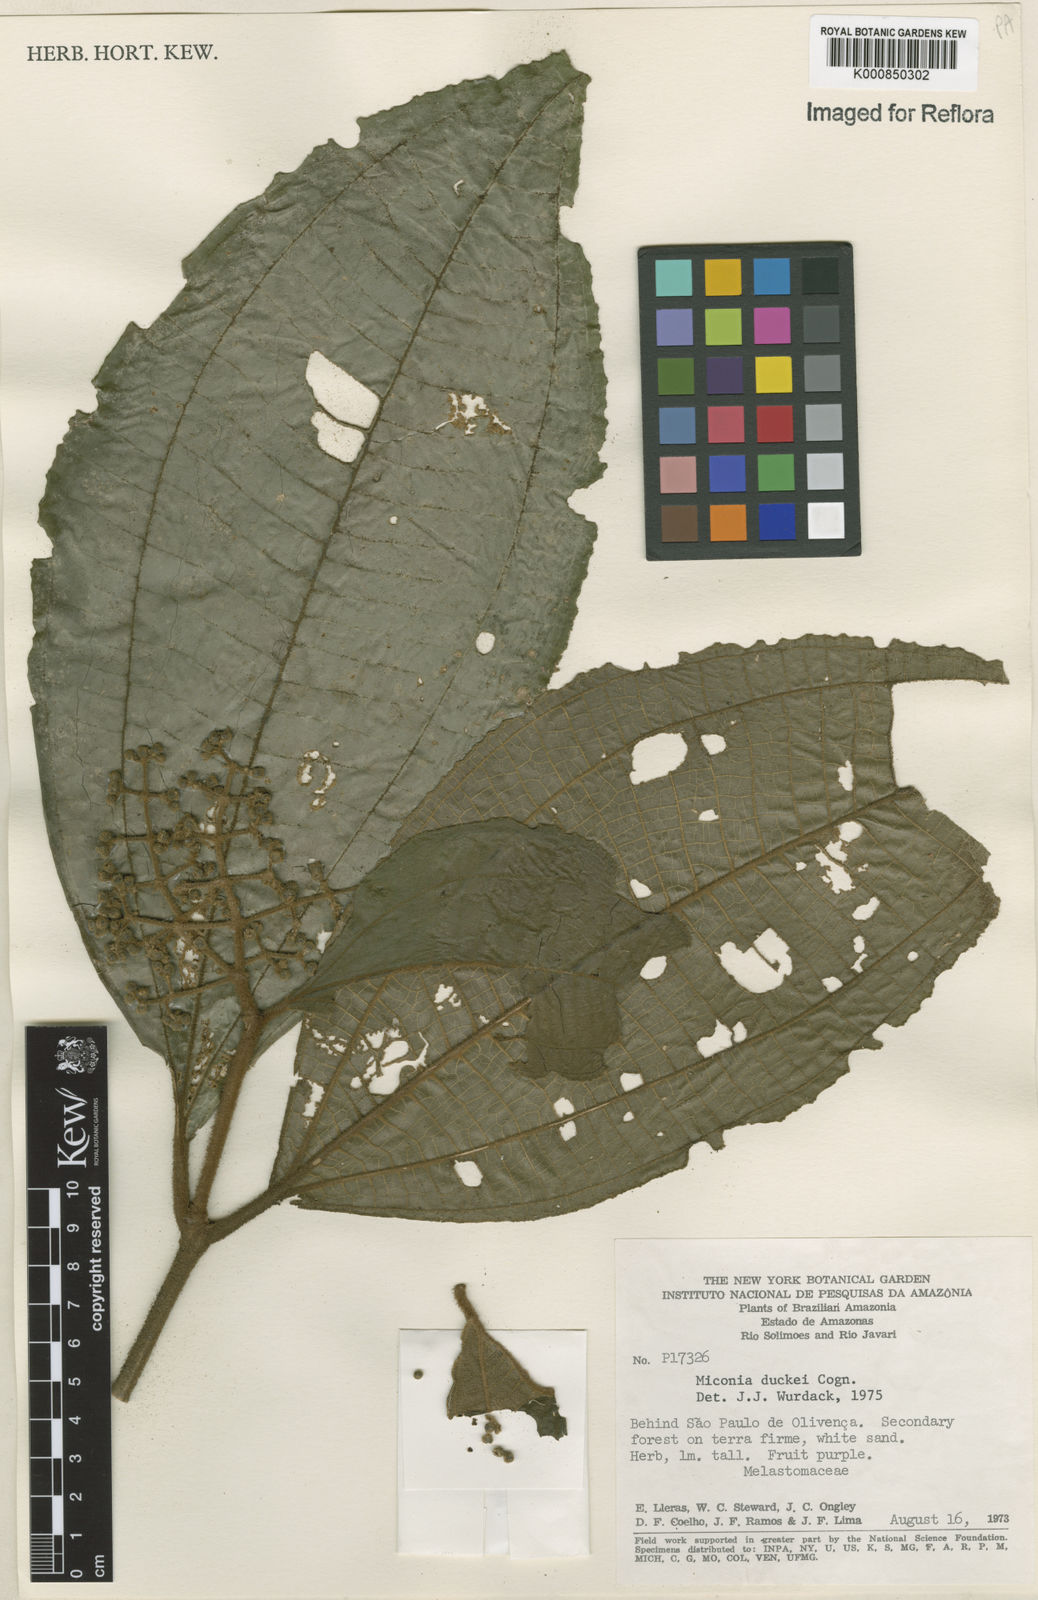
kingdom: Plantae
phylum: Tracheophyta
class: Magnoliopsida
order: Myrtales
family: Melastomataceae
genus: Miconia
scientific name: Miconia duckei
